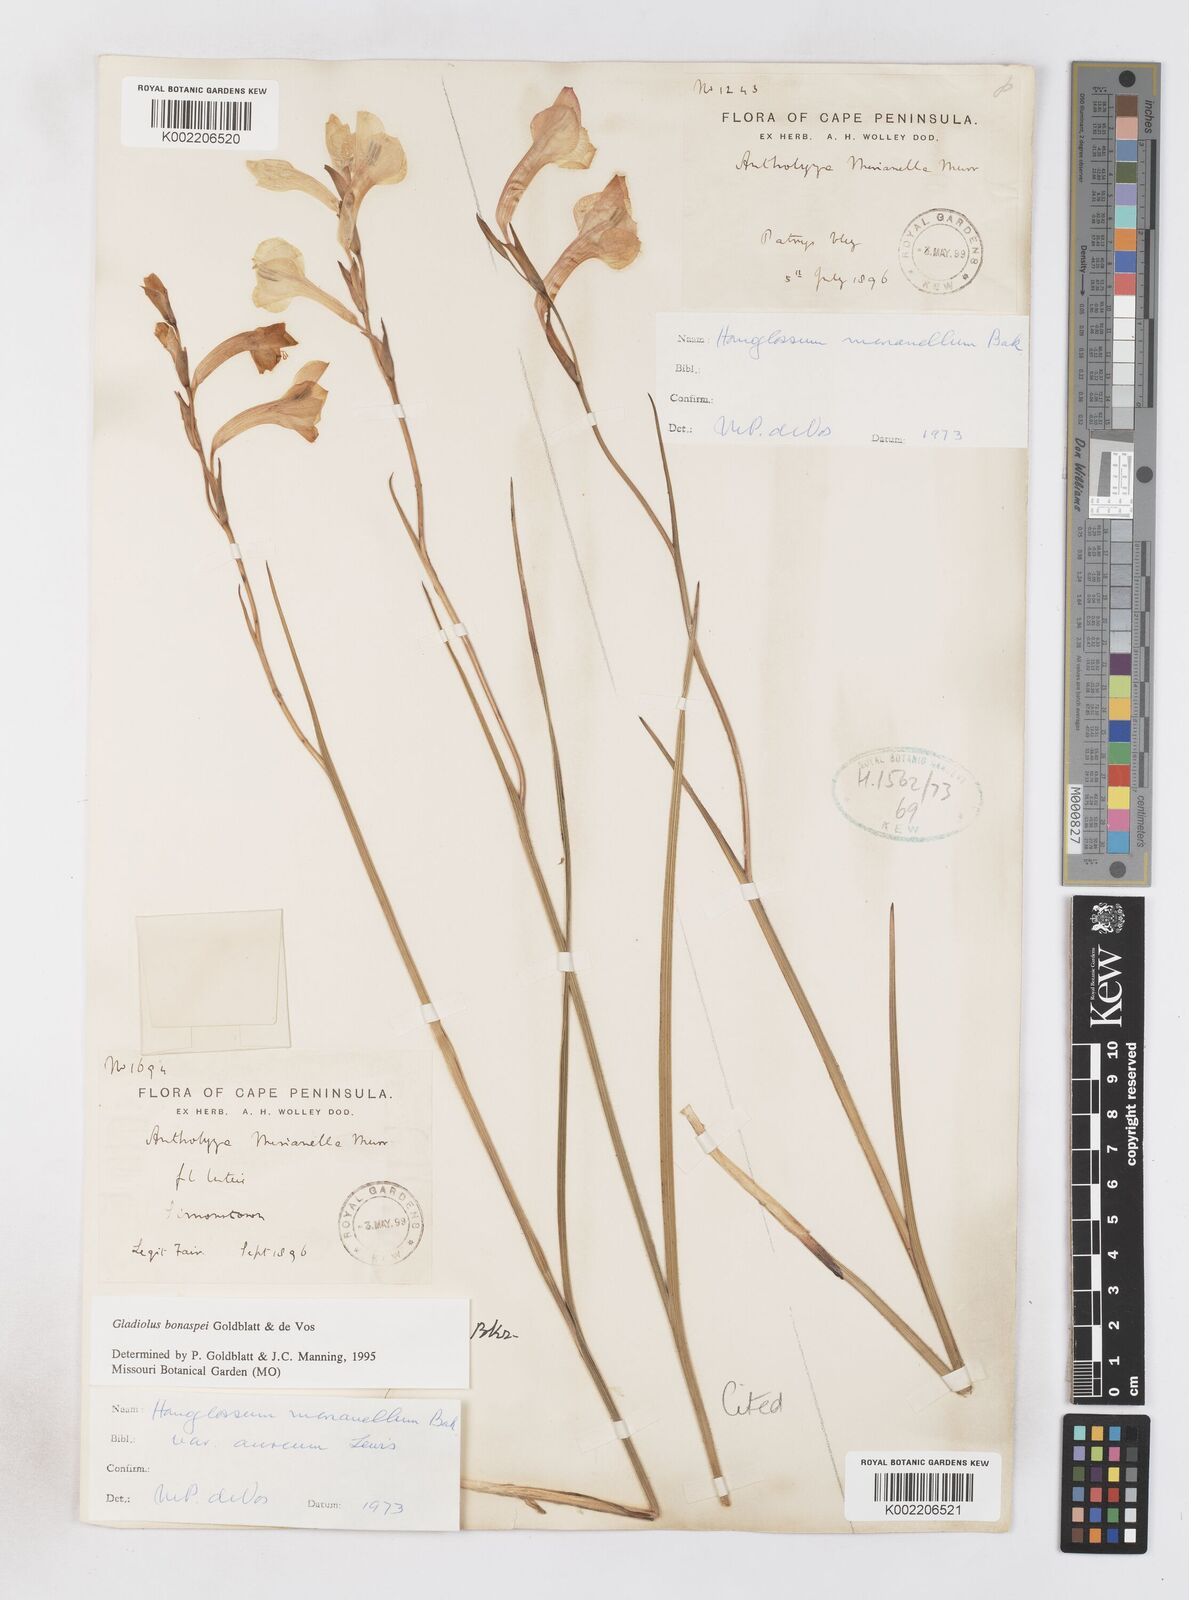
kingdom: Plantae
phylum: Tracheophyta
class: Liliopsida
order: Asparagales
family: Iridaceae
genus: Gladiolus
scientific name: Gladiolus merianellus
